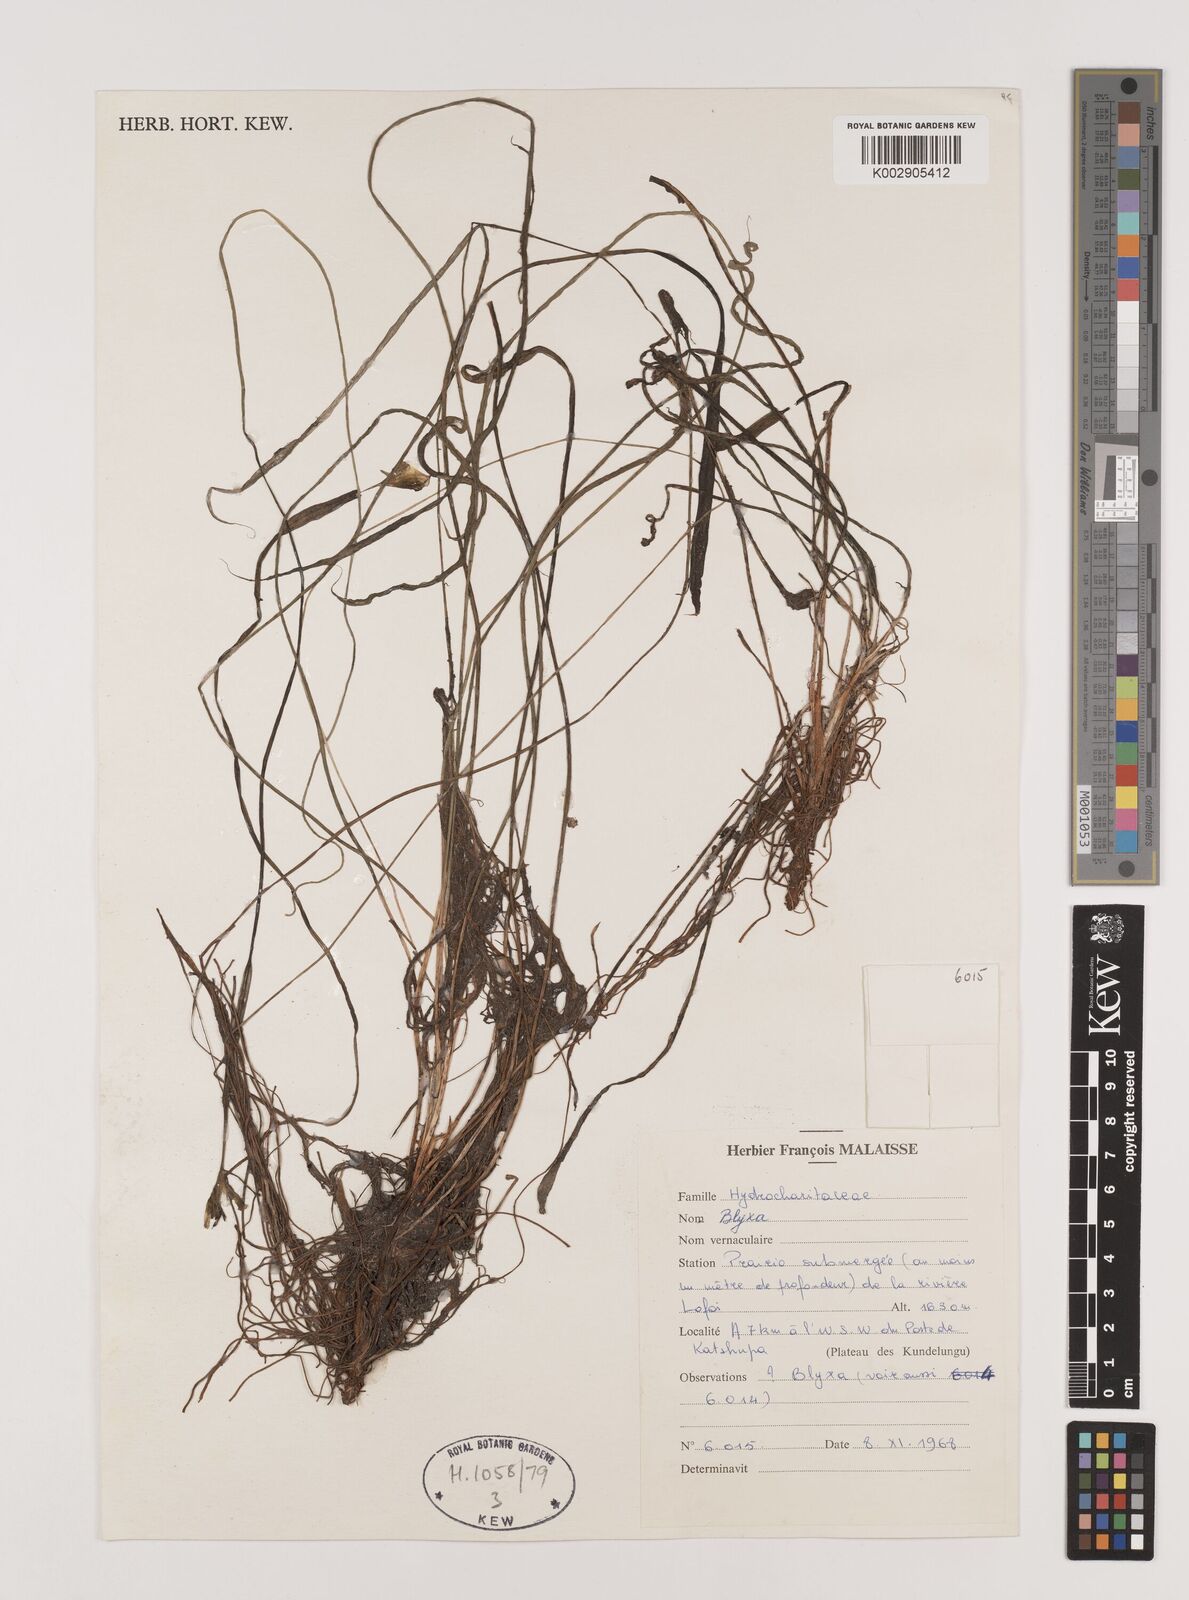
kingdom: Plantae
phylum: Tracheophyta
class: Liliopsida
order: Alismatales
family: Hydrocharitaceae
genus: Blyxa
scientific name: Blyxa
